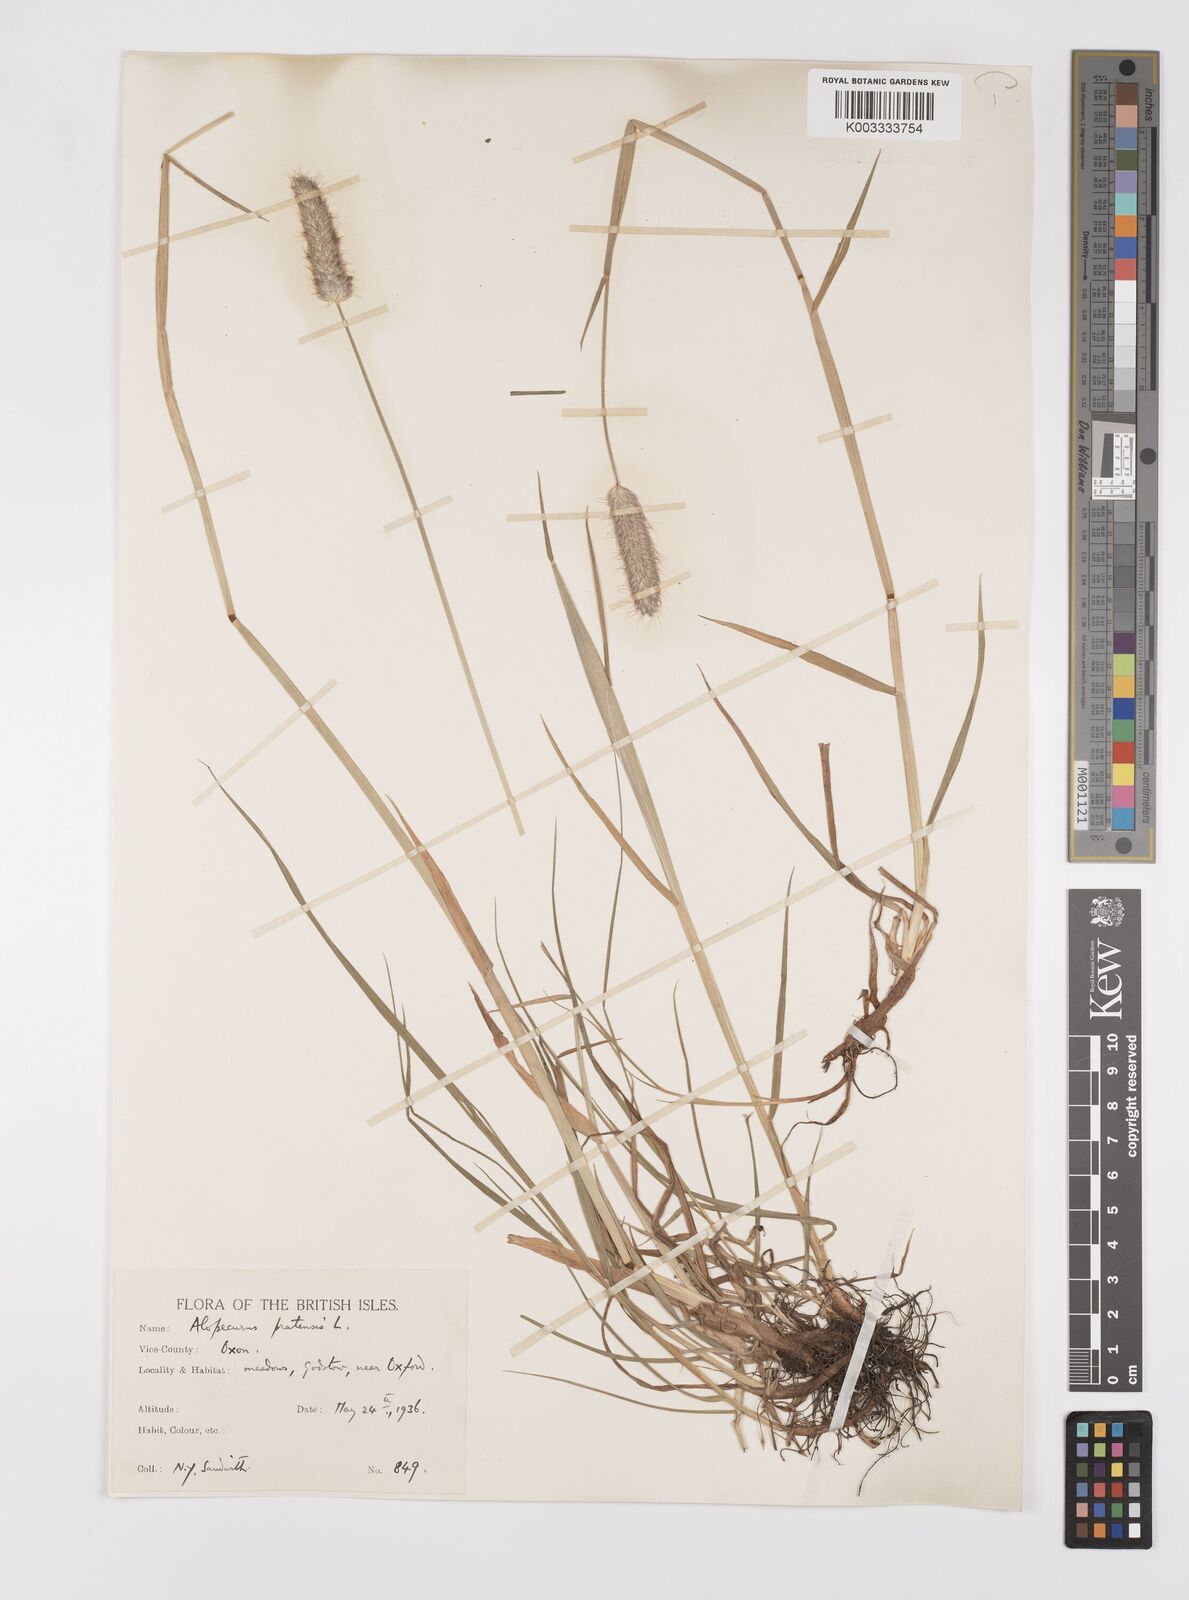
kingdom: Plantae
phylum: Tracheophyta
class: Liliopsida
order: Poales
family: Poaceae
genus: Alopecurus
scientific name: Alopecurus pratensis
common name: Meadow foxtail
